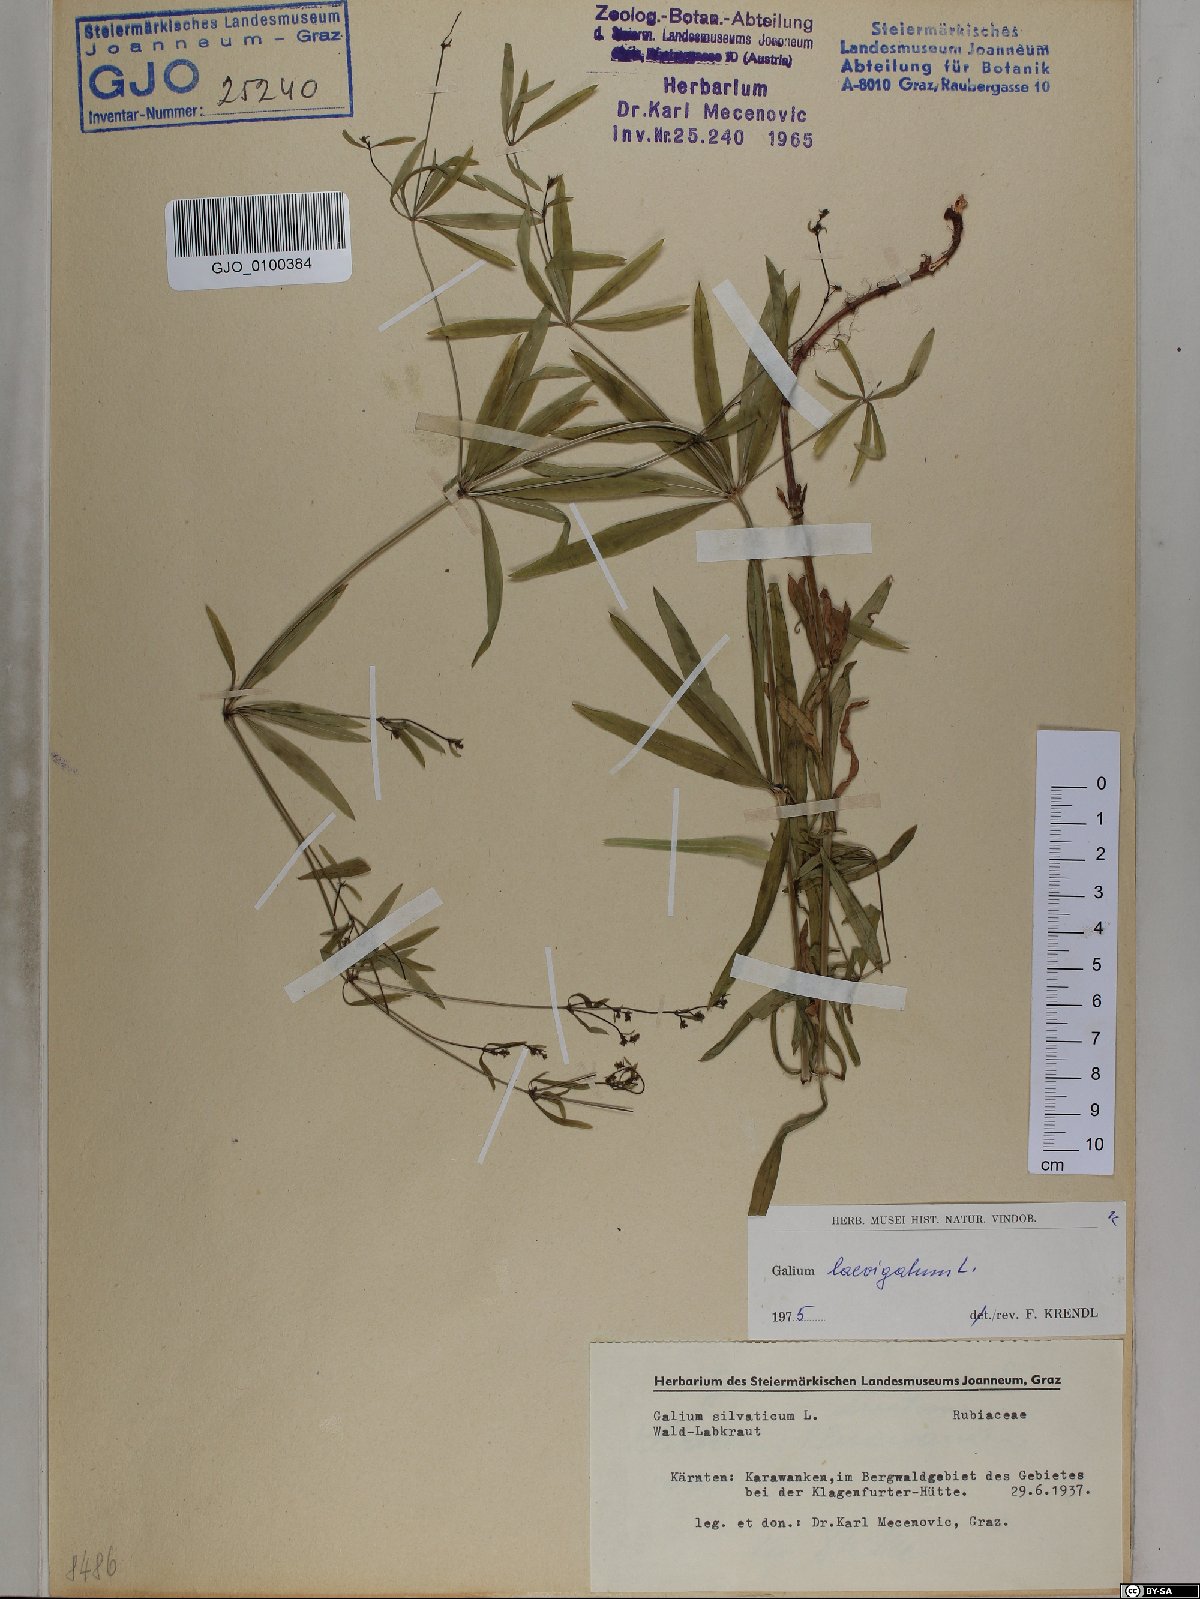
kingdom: Plantae
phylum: Tracheophyta
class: Magnoliopsida
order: Gentianales
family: Rubiaceae
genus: Galium
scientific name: Galium laevigatum
